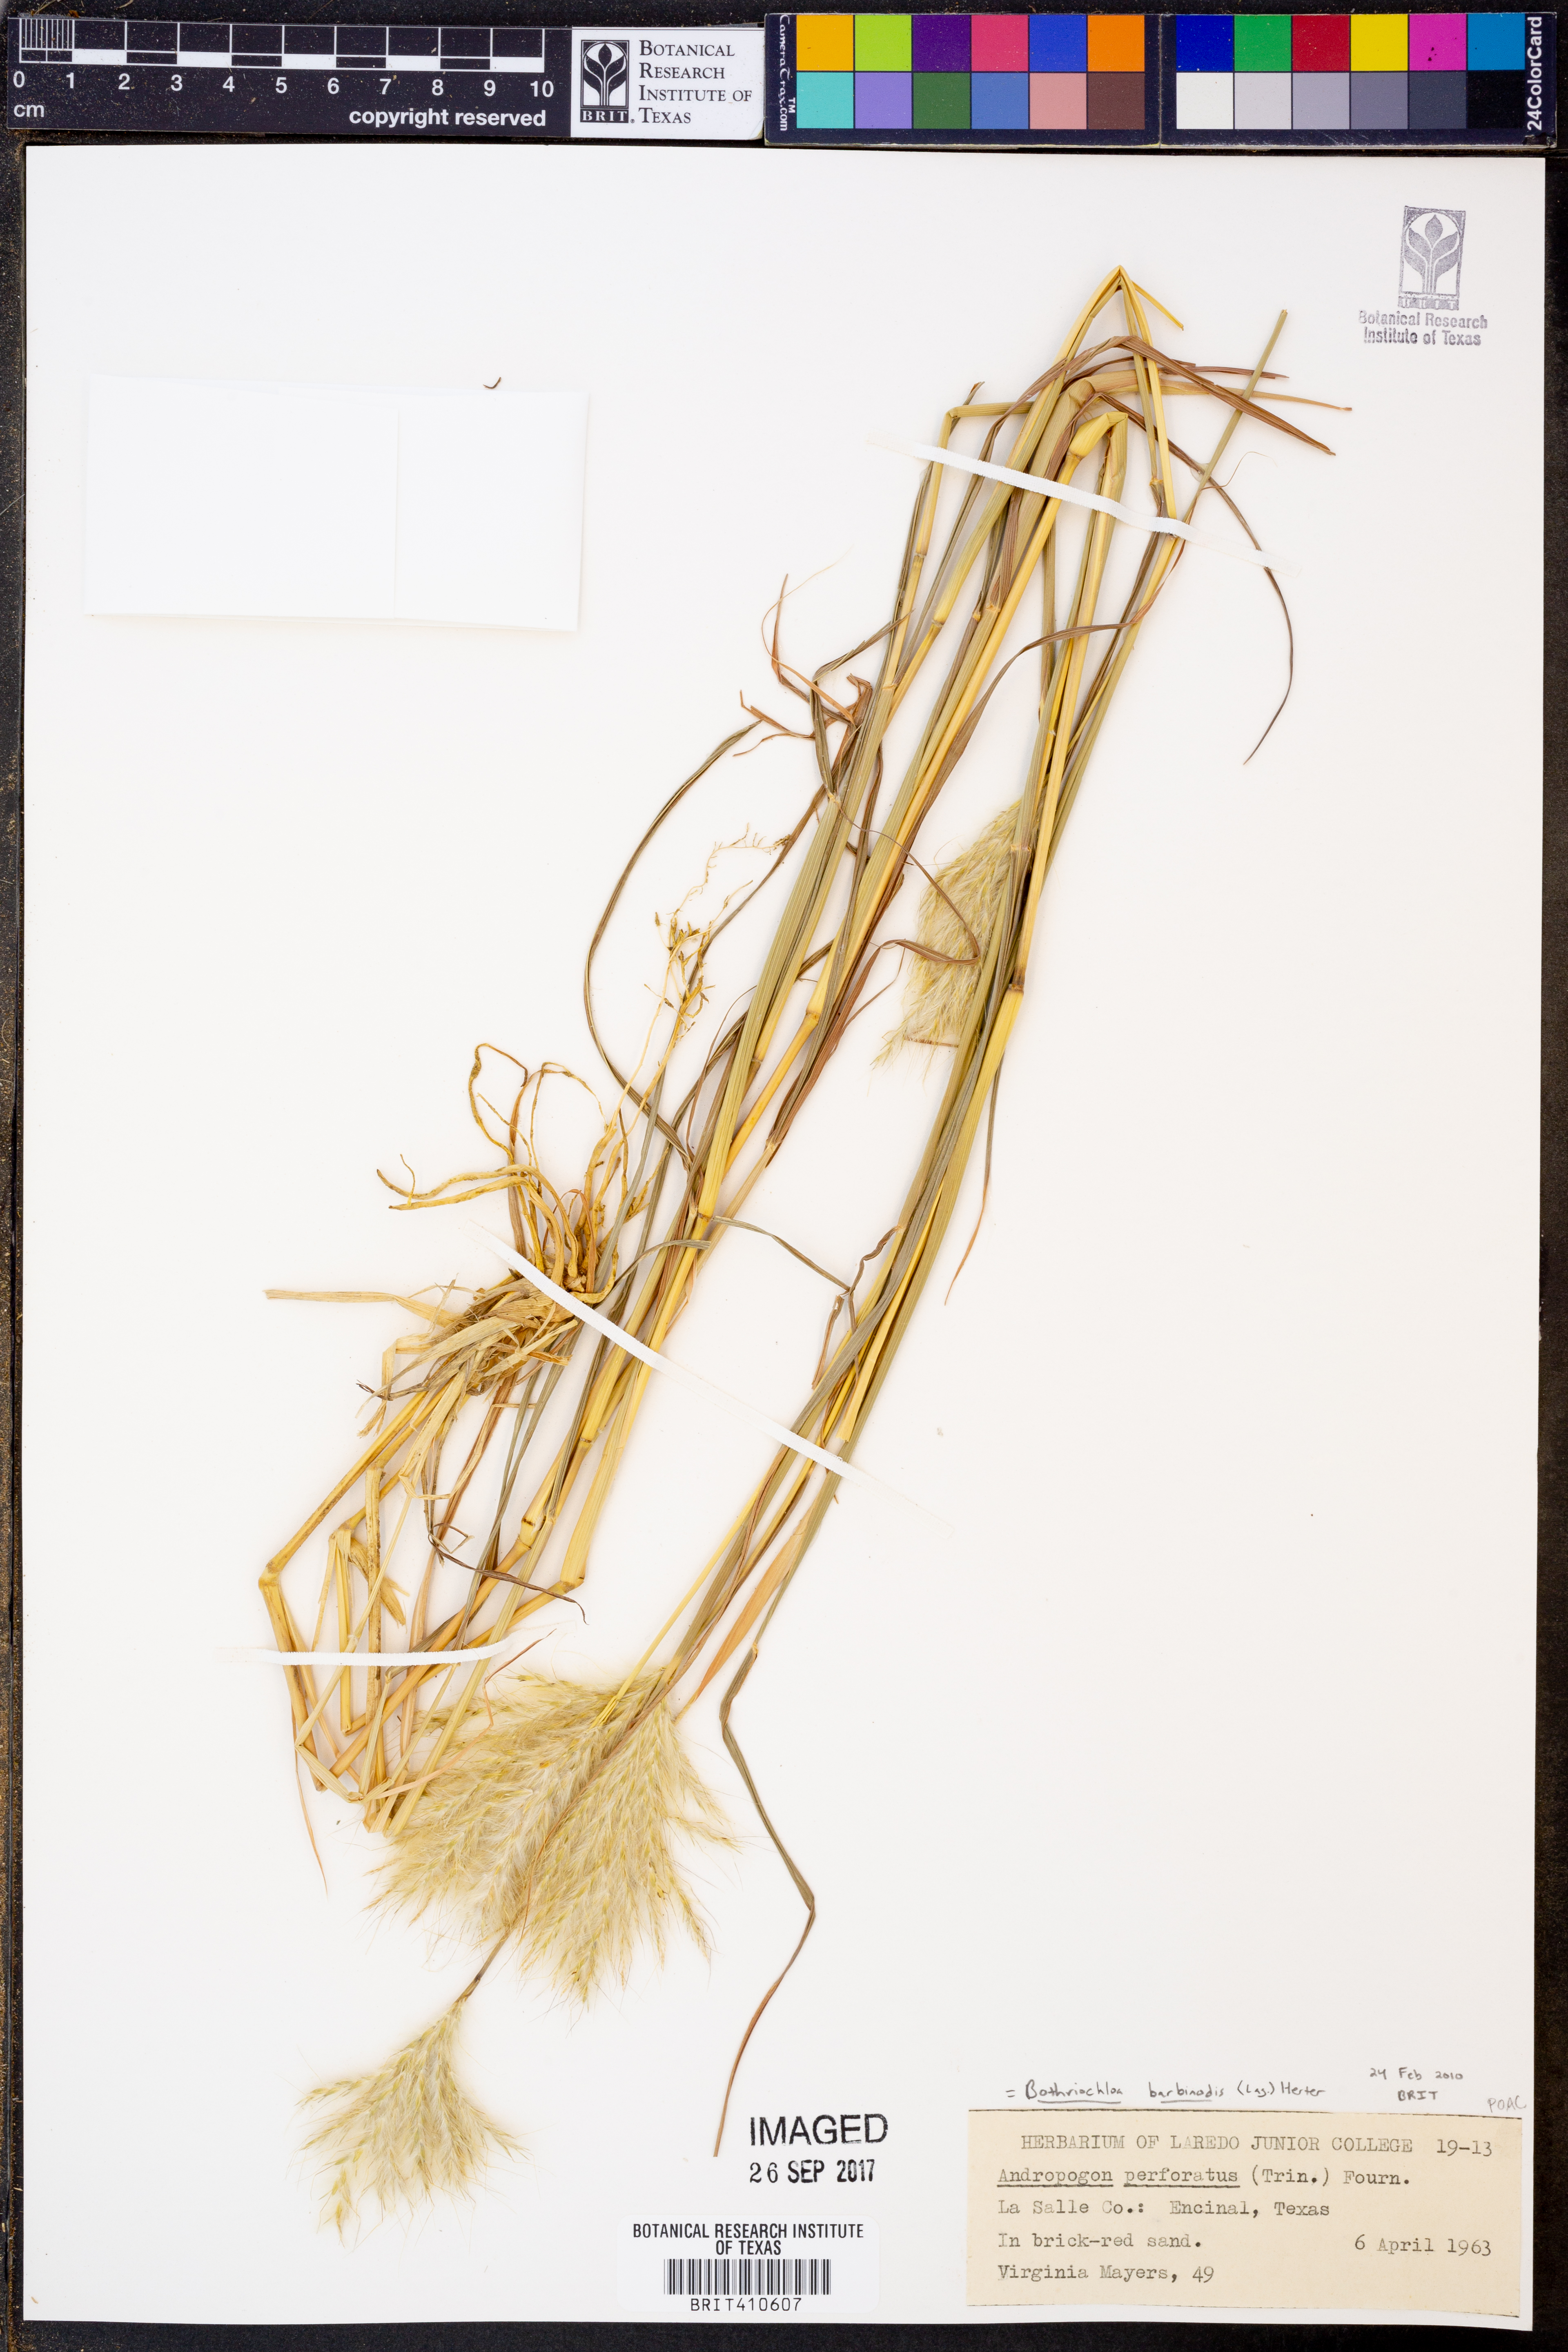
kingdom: Plantae
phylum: Tracheophyta
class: Liliopsida
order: Poales
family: Poaceae
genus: Bothriochloa
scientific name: Bothriochloa barbinodis
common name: Cane bluestem
